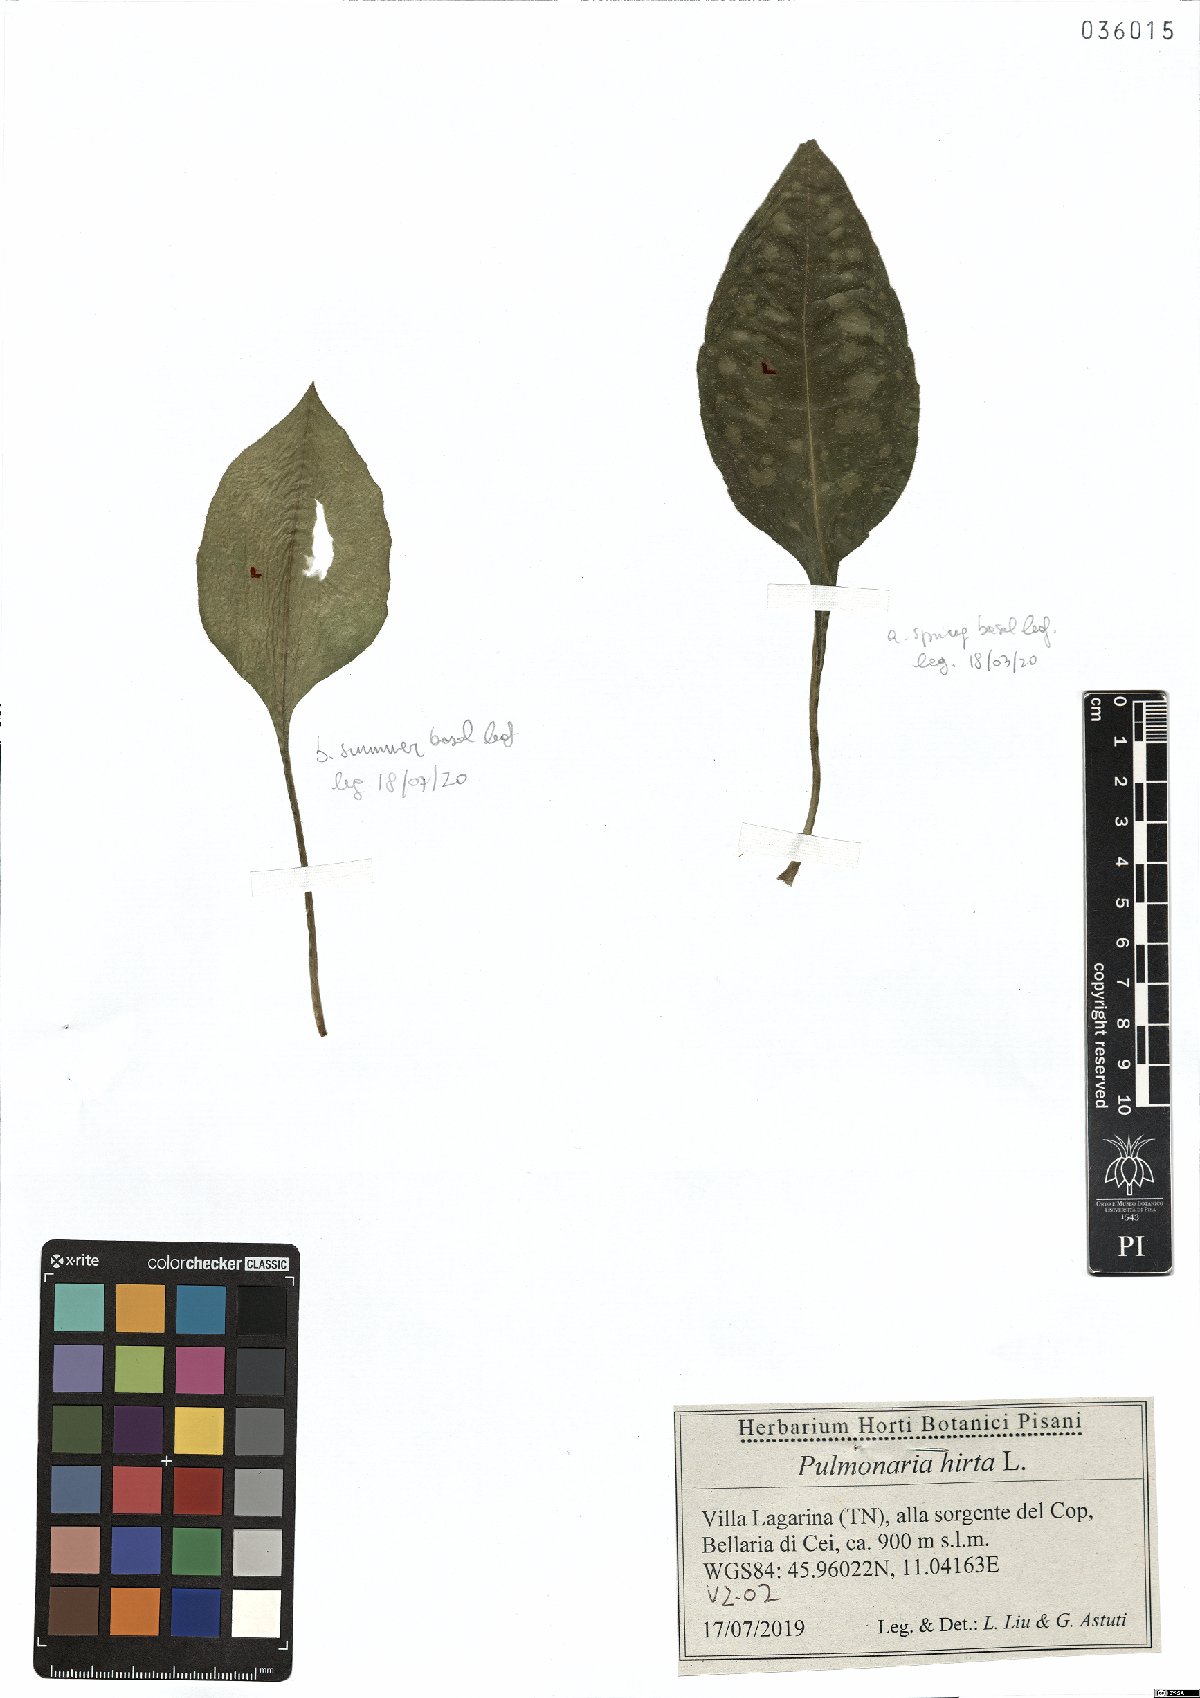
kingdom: Plantae
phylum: Tracheophyta
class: Magnoliopsida
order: Boraginales
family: Boraginaceae
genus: Pulmonaria
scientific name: Pulmonaria hirta
